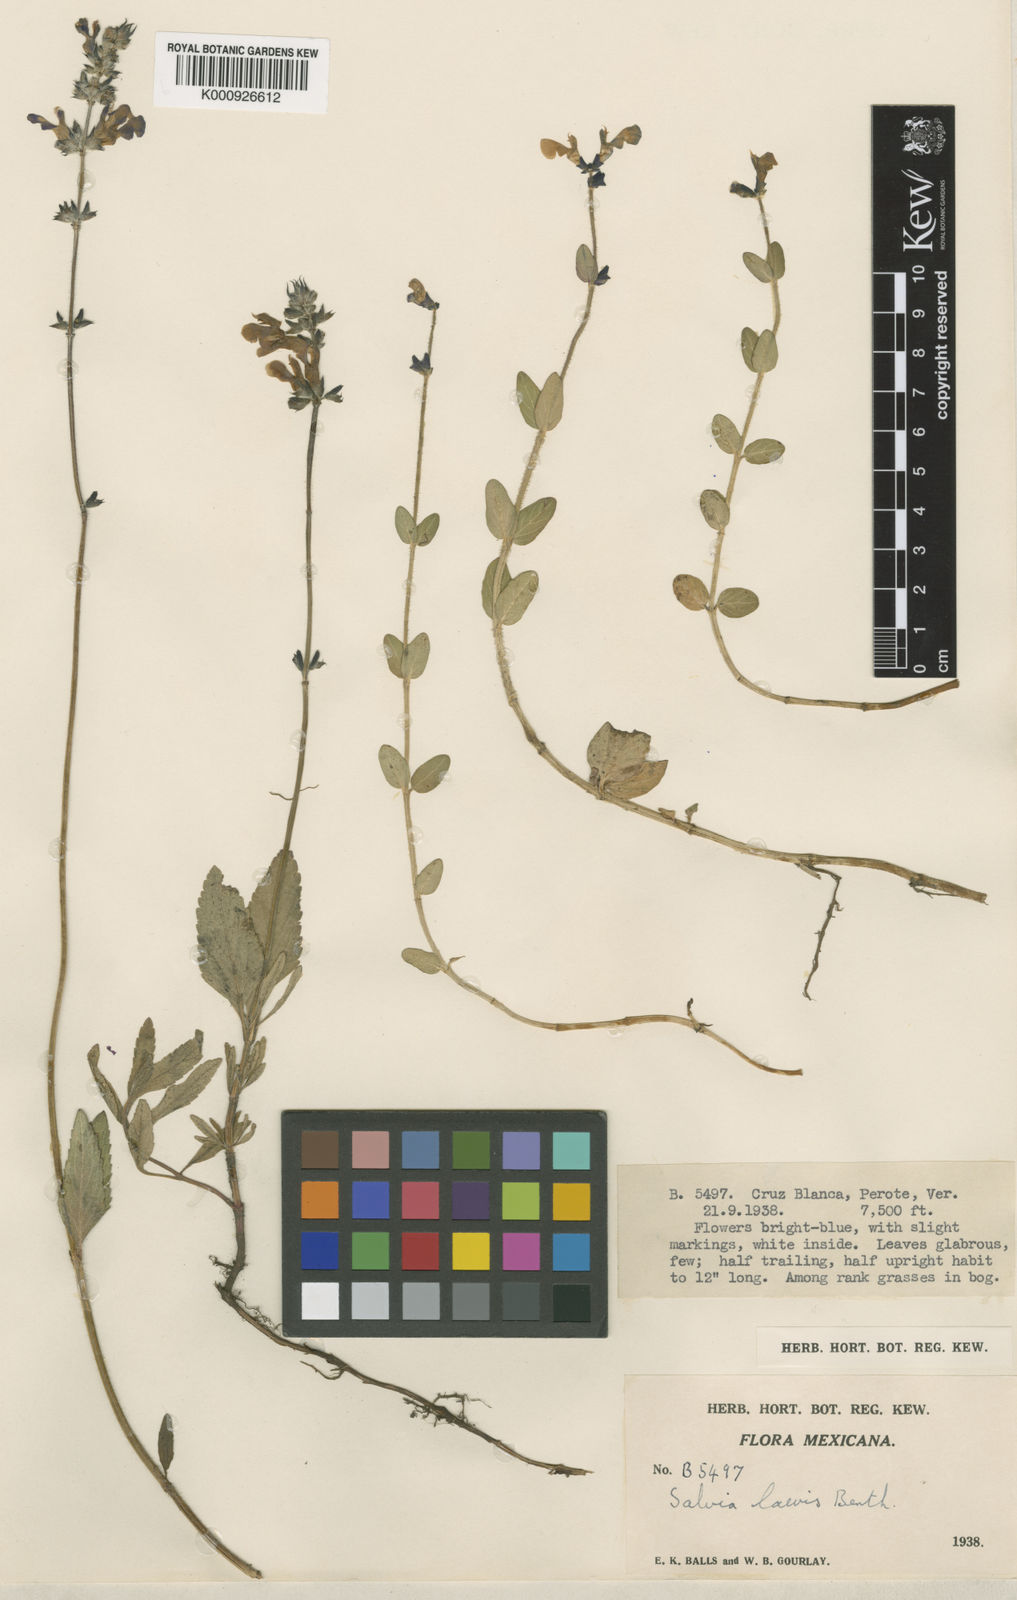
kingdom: Plantae
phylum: Tracheophyta
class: Magnoliopsida
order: Lamiales
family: Lamiaceae
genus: Salvia
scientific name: Salvia nana
